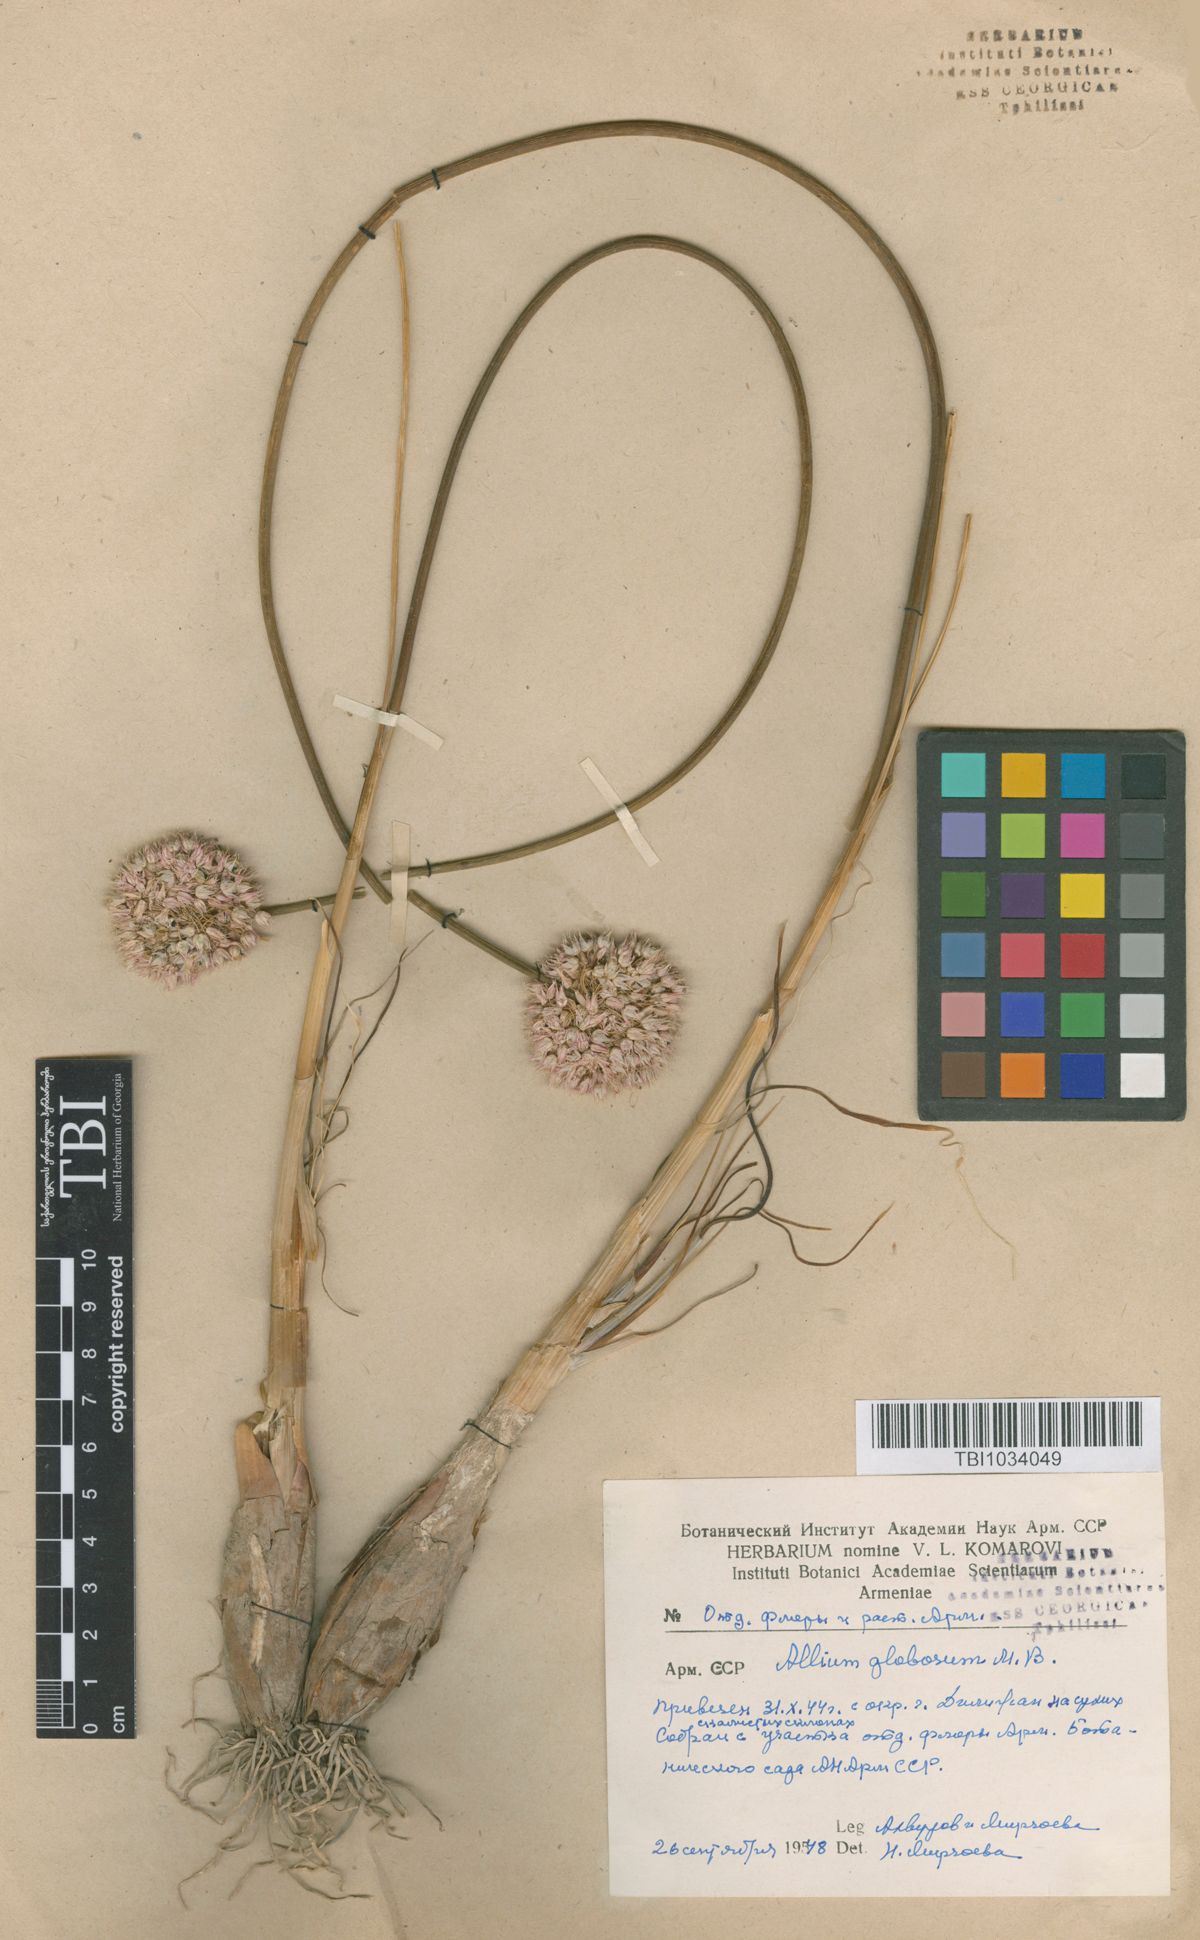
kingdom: Plantae
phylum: Tracheophyta
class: Liliopsida
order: Asparagales
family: Amaryllidaceae
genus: Allium
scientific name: Allium saxatile
